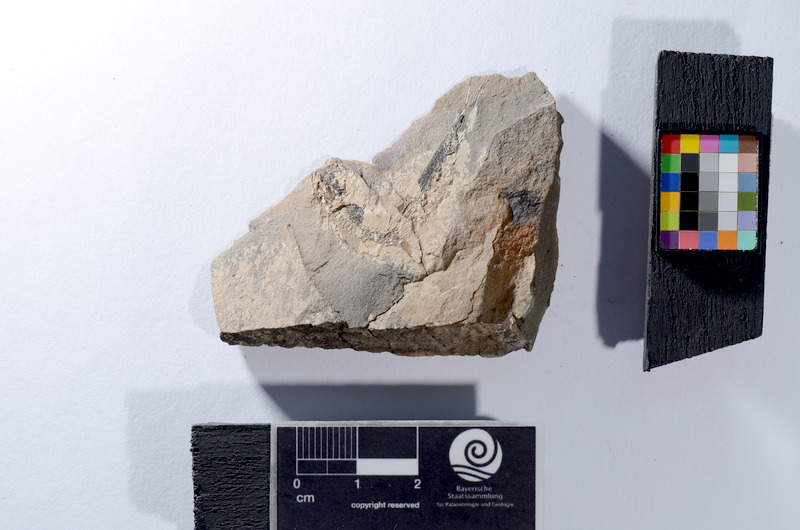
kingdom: Animalia
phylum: Chordata
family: Leptolepididae
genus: Leptolepis
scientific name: Leptolepis coryphaenoides
